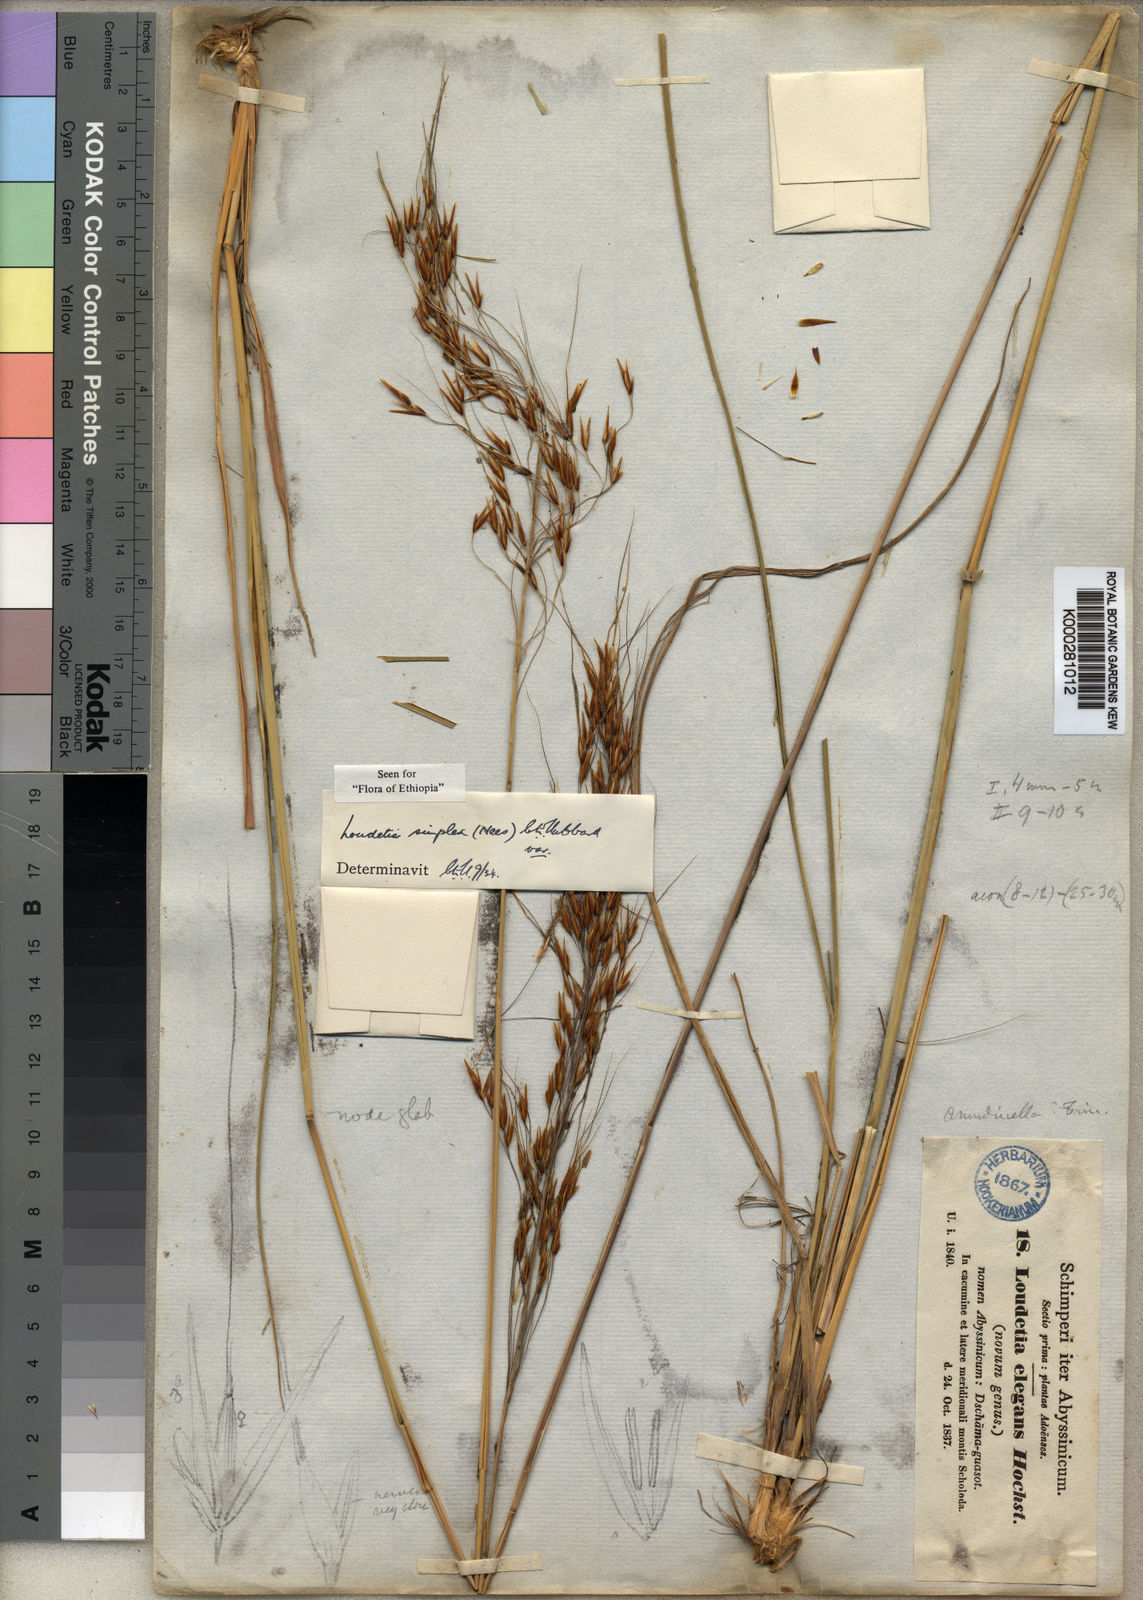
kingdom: Plantae
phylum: Tracheophyta
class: Liliopsida
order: Poales
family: Poaceae
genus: Loudetia
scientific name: Loudetia simplex
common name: Common russet grass
